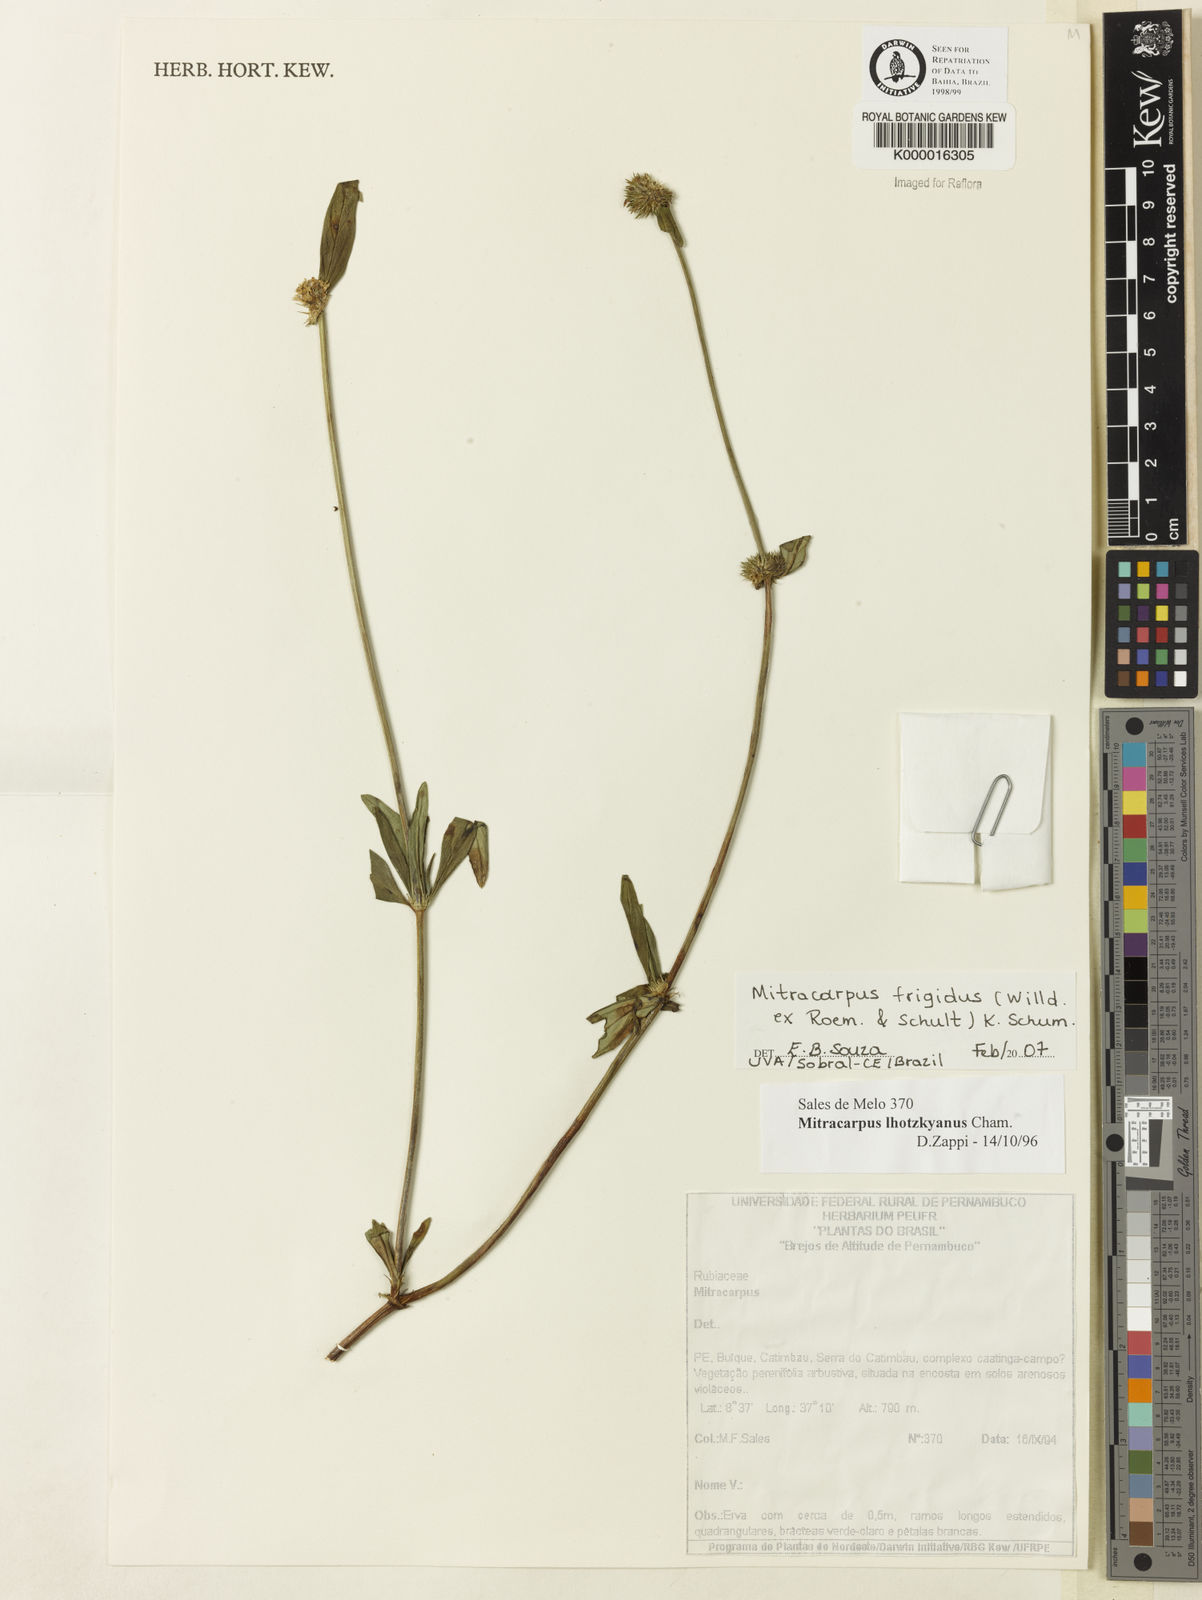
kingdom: Plantae
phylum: Tracheophyta
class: Magnoliopsida
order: Gentianales
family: Rubiaceae
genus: Mitracarpus
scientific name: Mitracarpus frigidus
